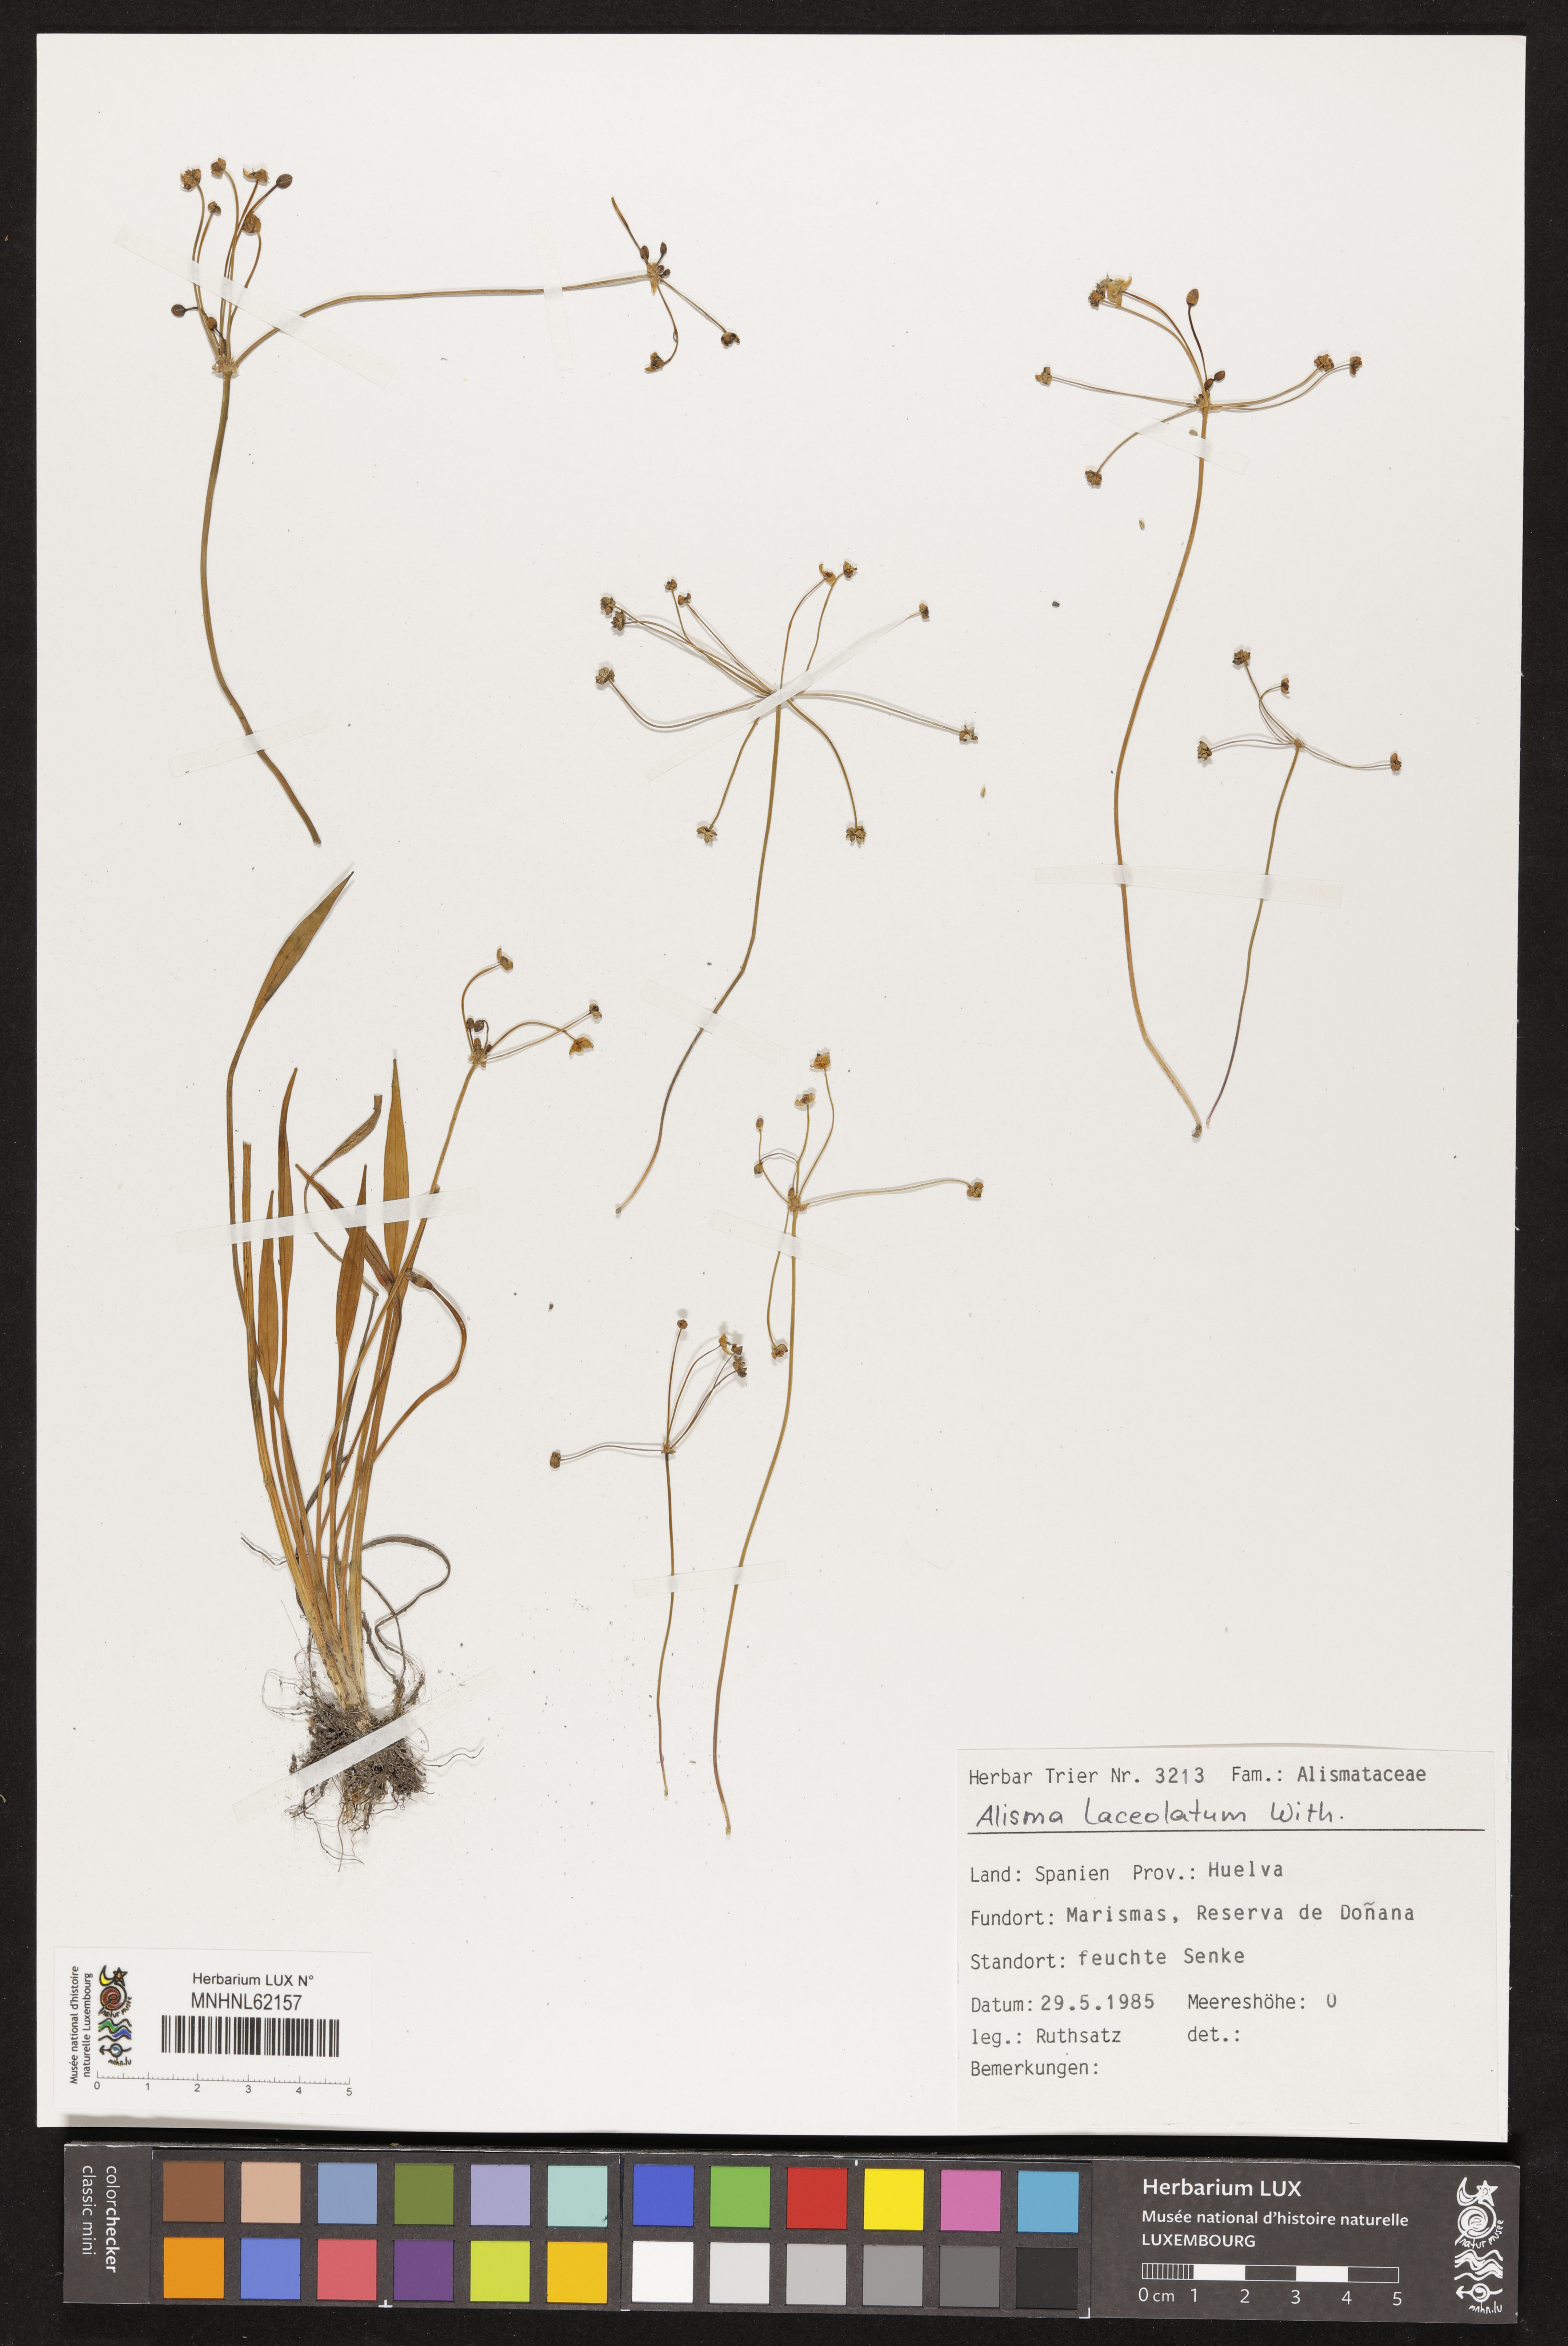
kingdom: Plantae
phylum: Tracheophyta
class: Liliopsida
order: Alismatales
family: Alismataceae
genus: Alisma
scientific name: Alisma lanceolatum
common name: Narrow-leaved water-plantain
